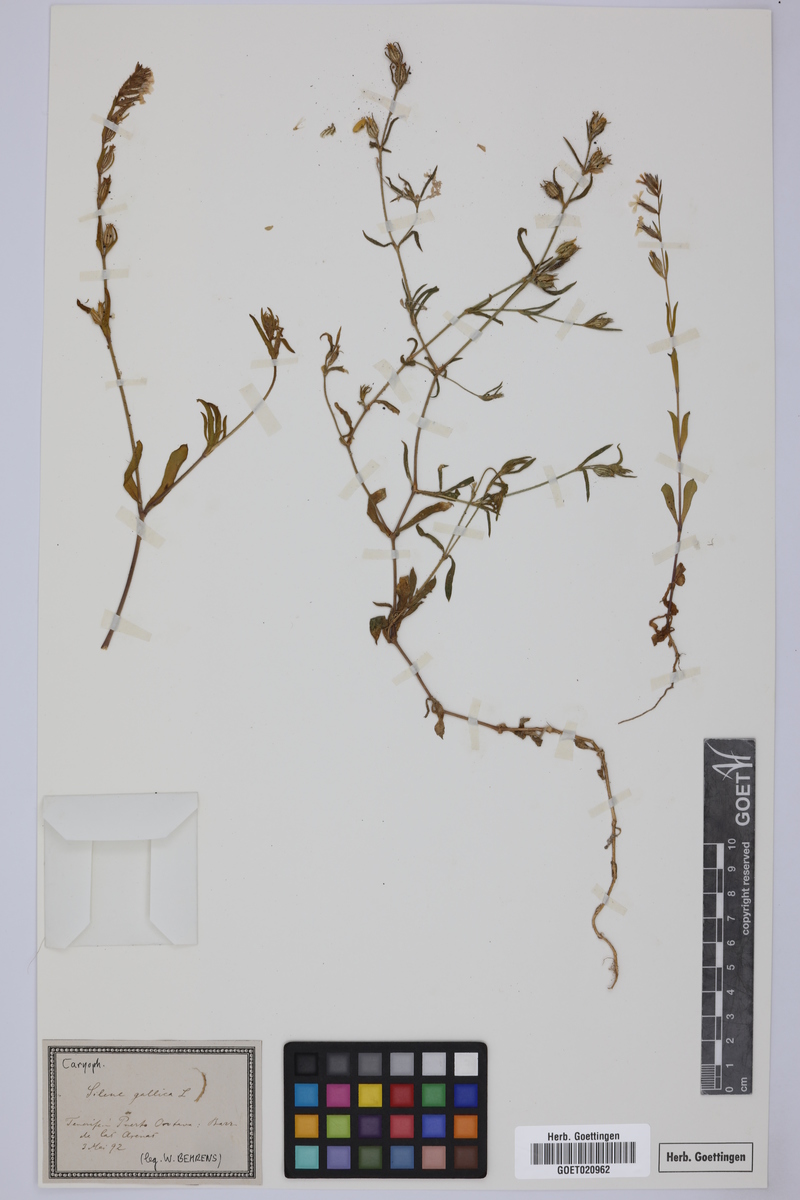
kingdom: Plantae
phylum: Tracheophyta
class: Magnoliopsida
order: Caryophyllales
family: Caryophyllaceae
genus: Silene
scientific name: Silene gallica
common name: Small-flowered catchfly
